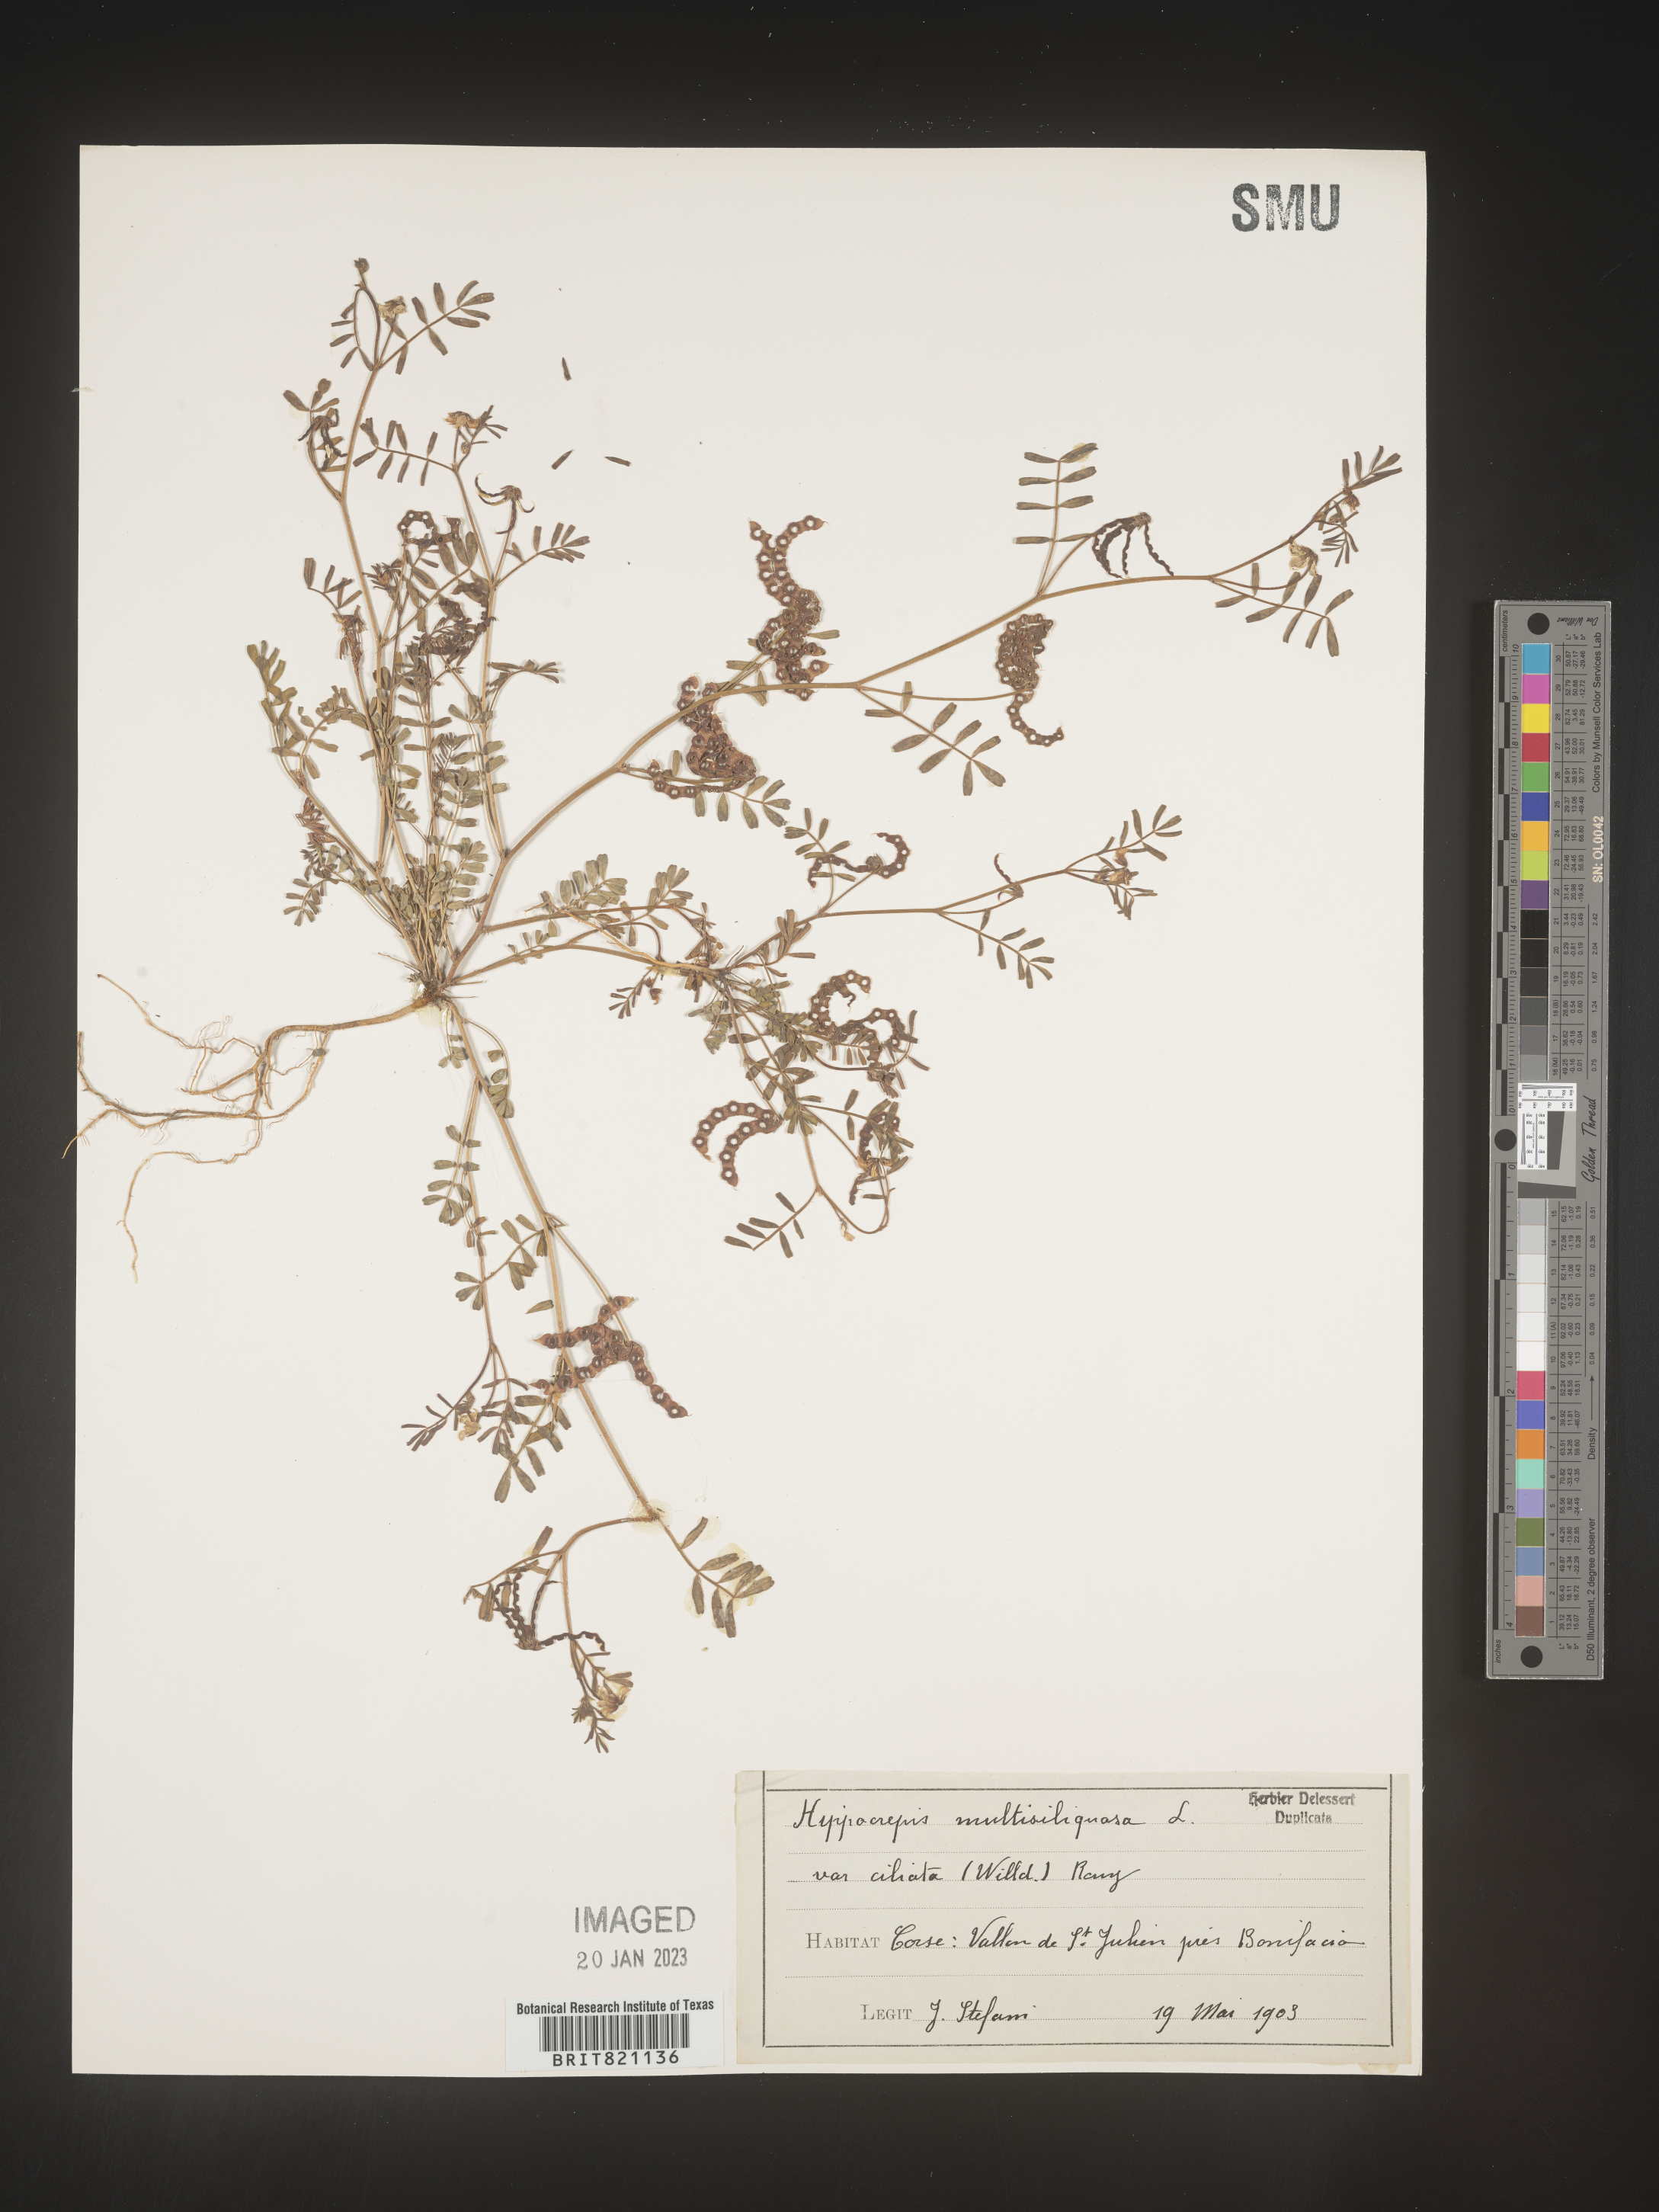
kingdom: Plantae
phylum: Tracheophyta
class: Magnoliopsida
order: Fabales
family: Fabaceae
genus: Hippocrepis
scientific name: Hippocrepis
